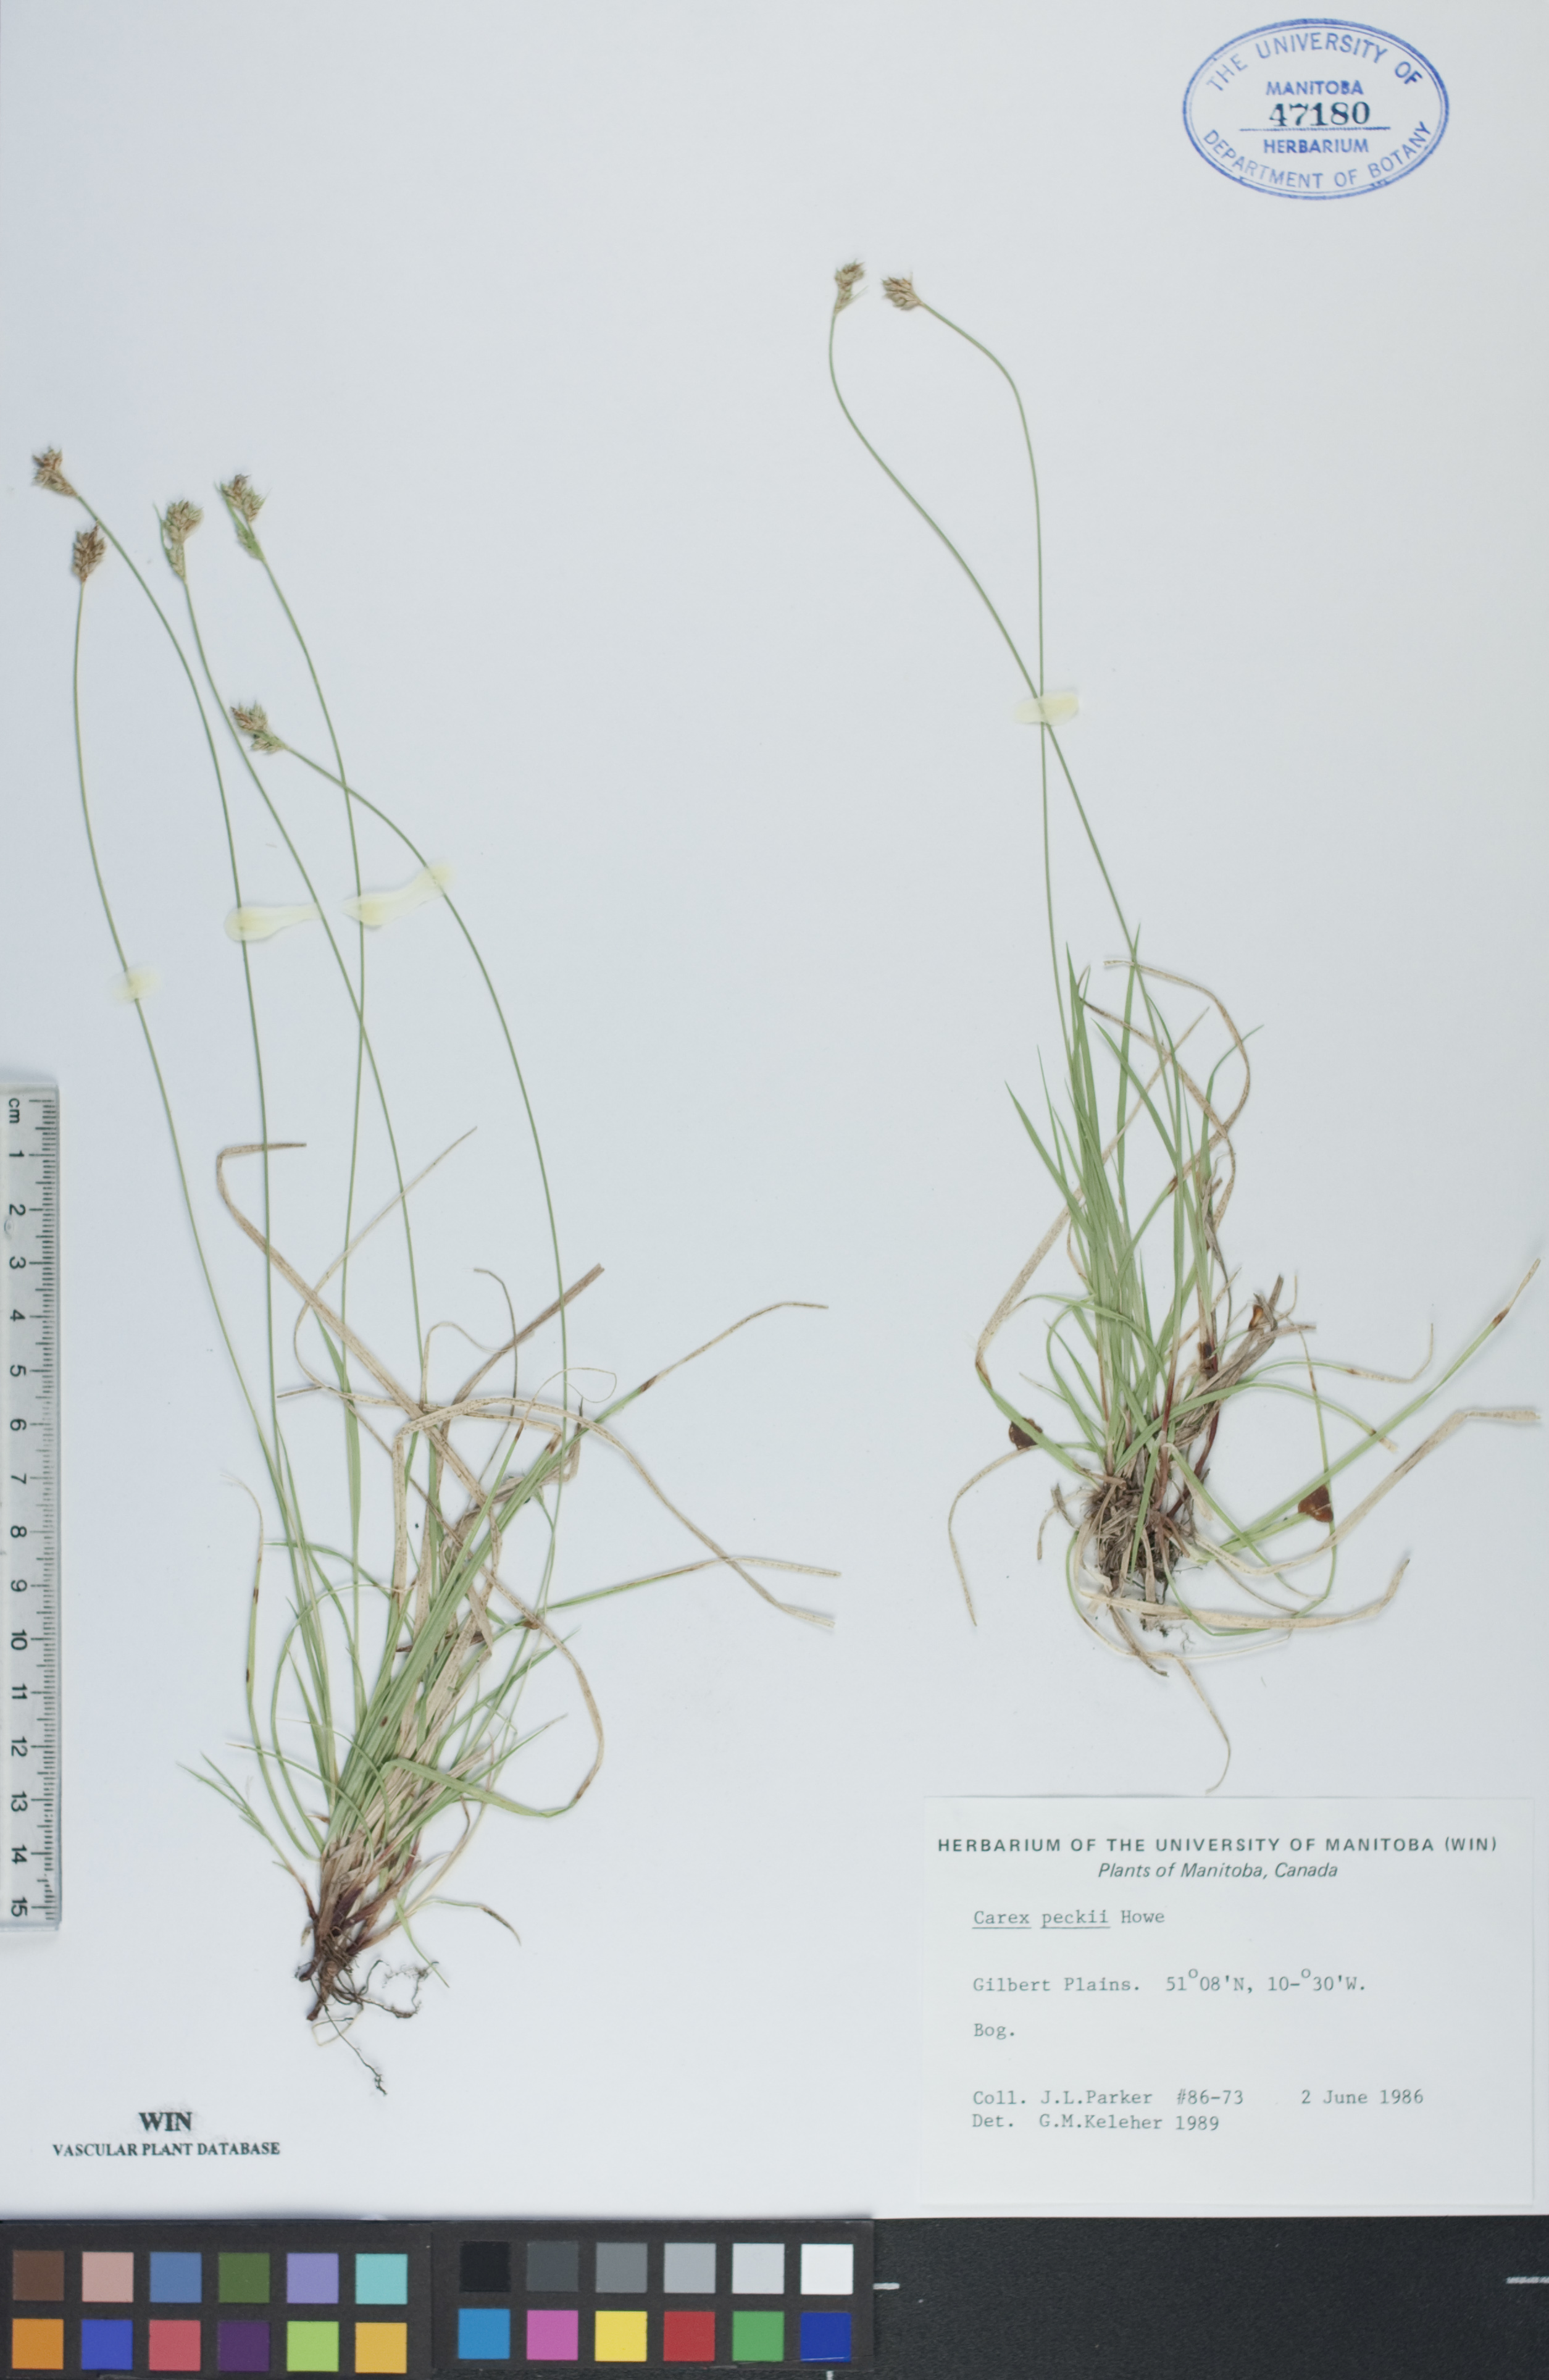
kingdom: Plantae
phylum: Tracheophyta
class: Liliopsida
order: Poales
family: Cyperaceae
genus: Carex
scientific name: Carex peckii
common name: Peck's oak sedge
